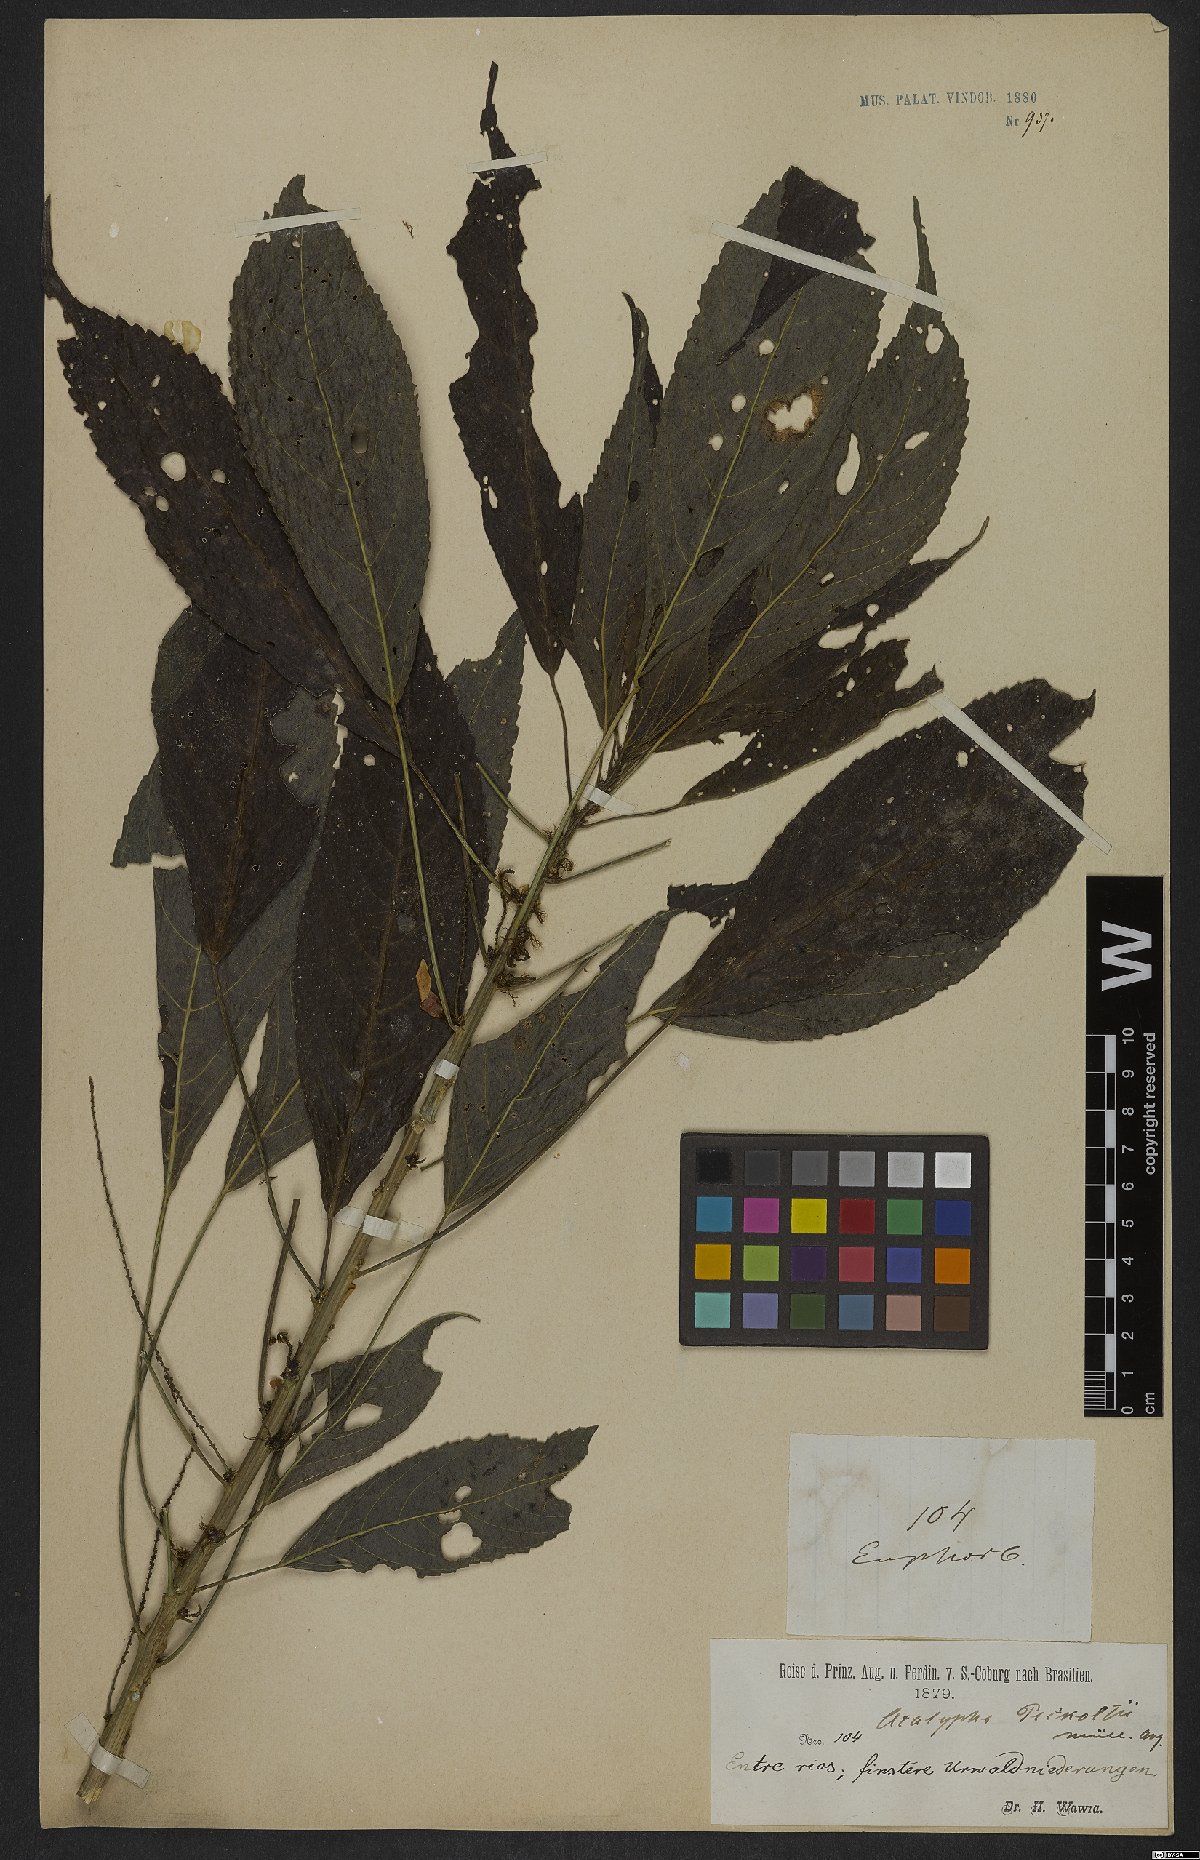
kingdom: Plantae
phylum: Tracheophyta
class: Magnoliopsida
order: Malpighiales
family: Euphorbiaceae
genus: Acalypha
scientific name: Acalypha peckoltii
